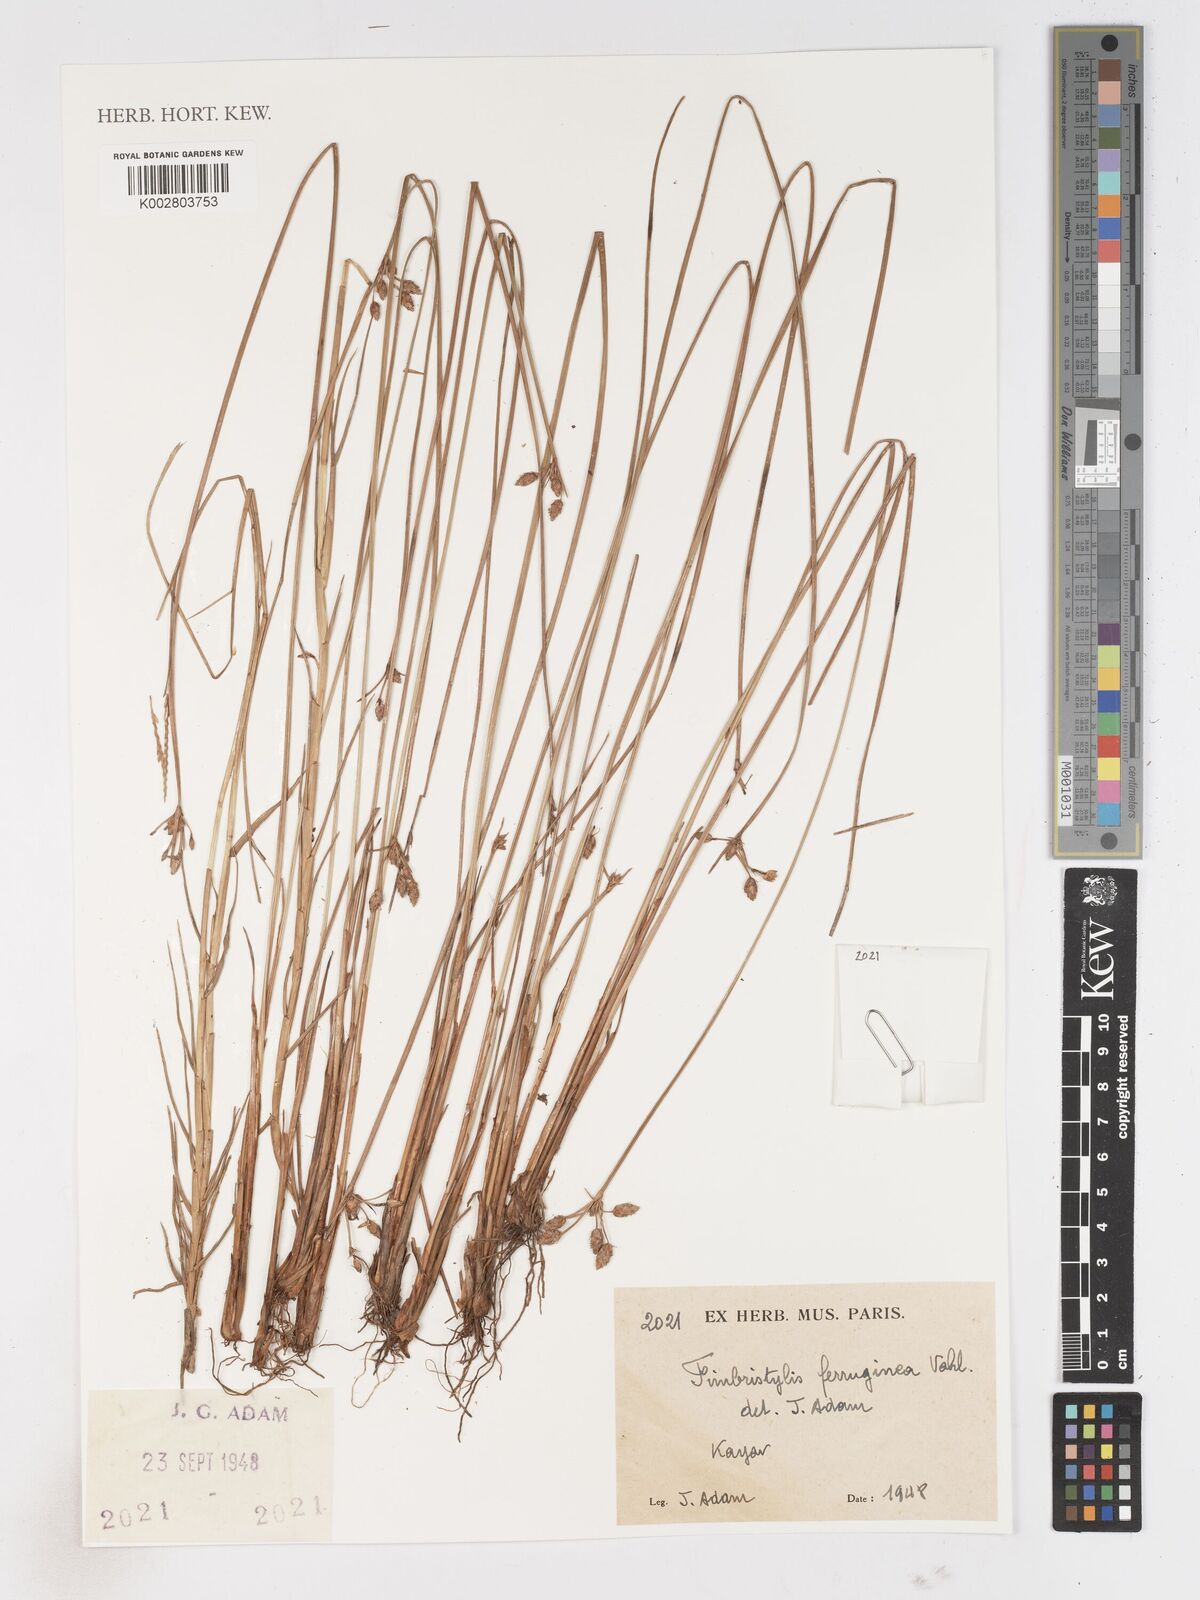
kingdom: Plantae
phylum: Tracheophyta
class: Liliopsida
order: Poales
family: Cyperaceae
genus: Fimbristylis
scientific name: Fimbristylis ferruginea
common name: West indian fimbry
